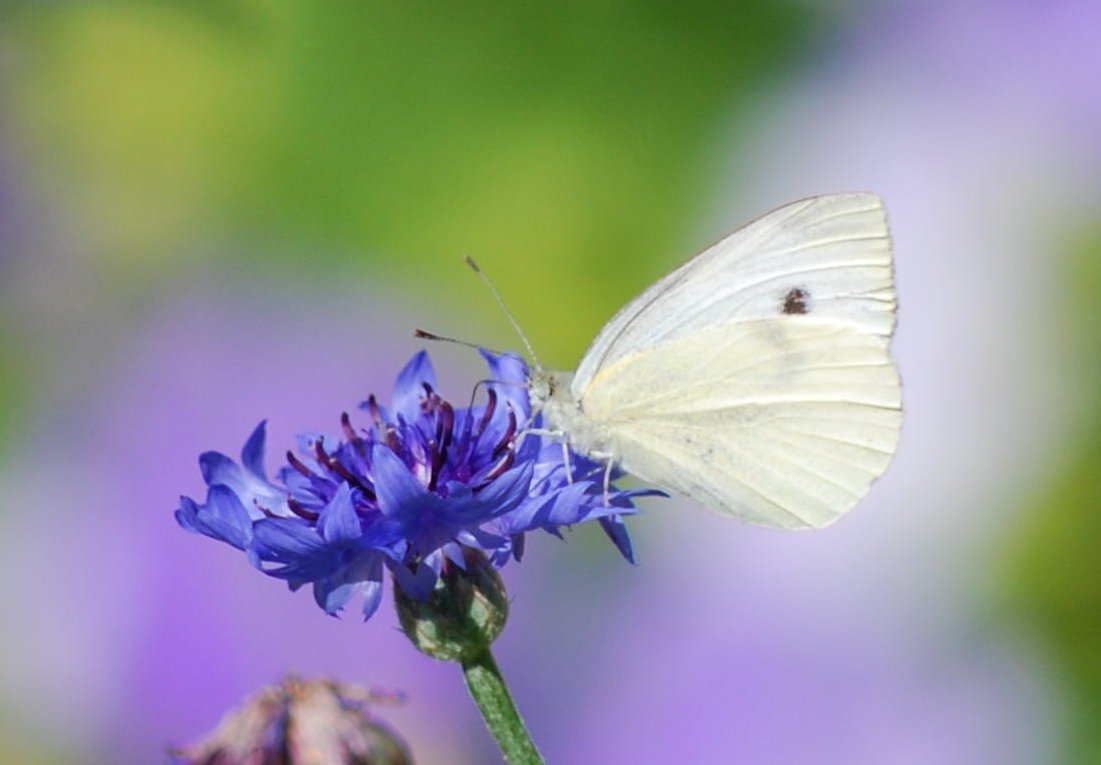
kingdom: Animalia
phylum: Arthropoda
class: Insecta
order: Lepidoptera
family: Pieridae
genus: Pieris
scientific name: Pieris rapae
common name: Cabbage White
